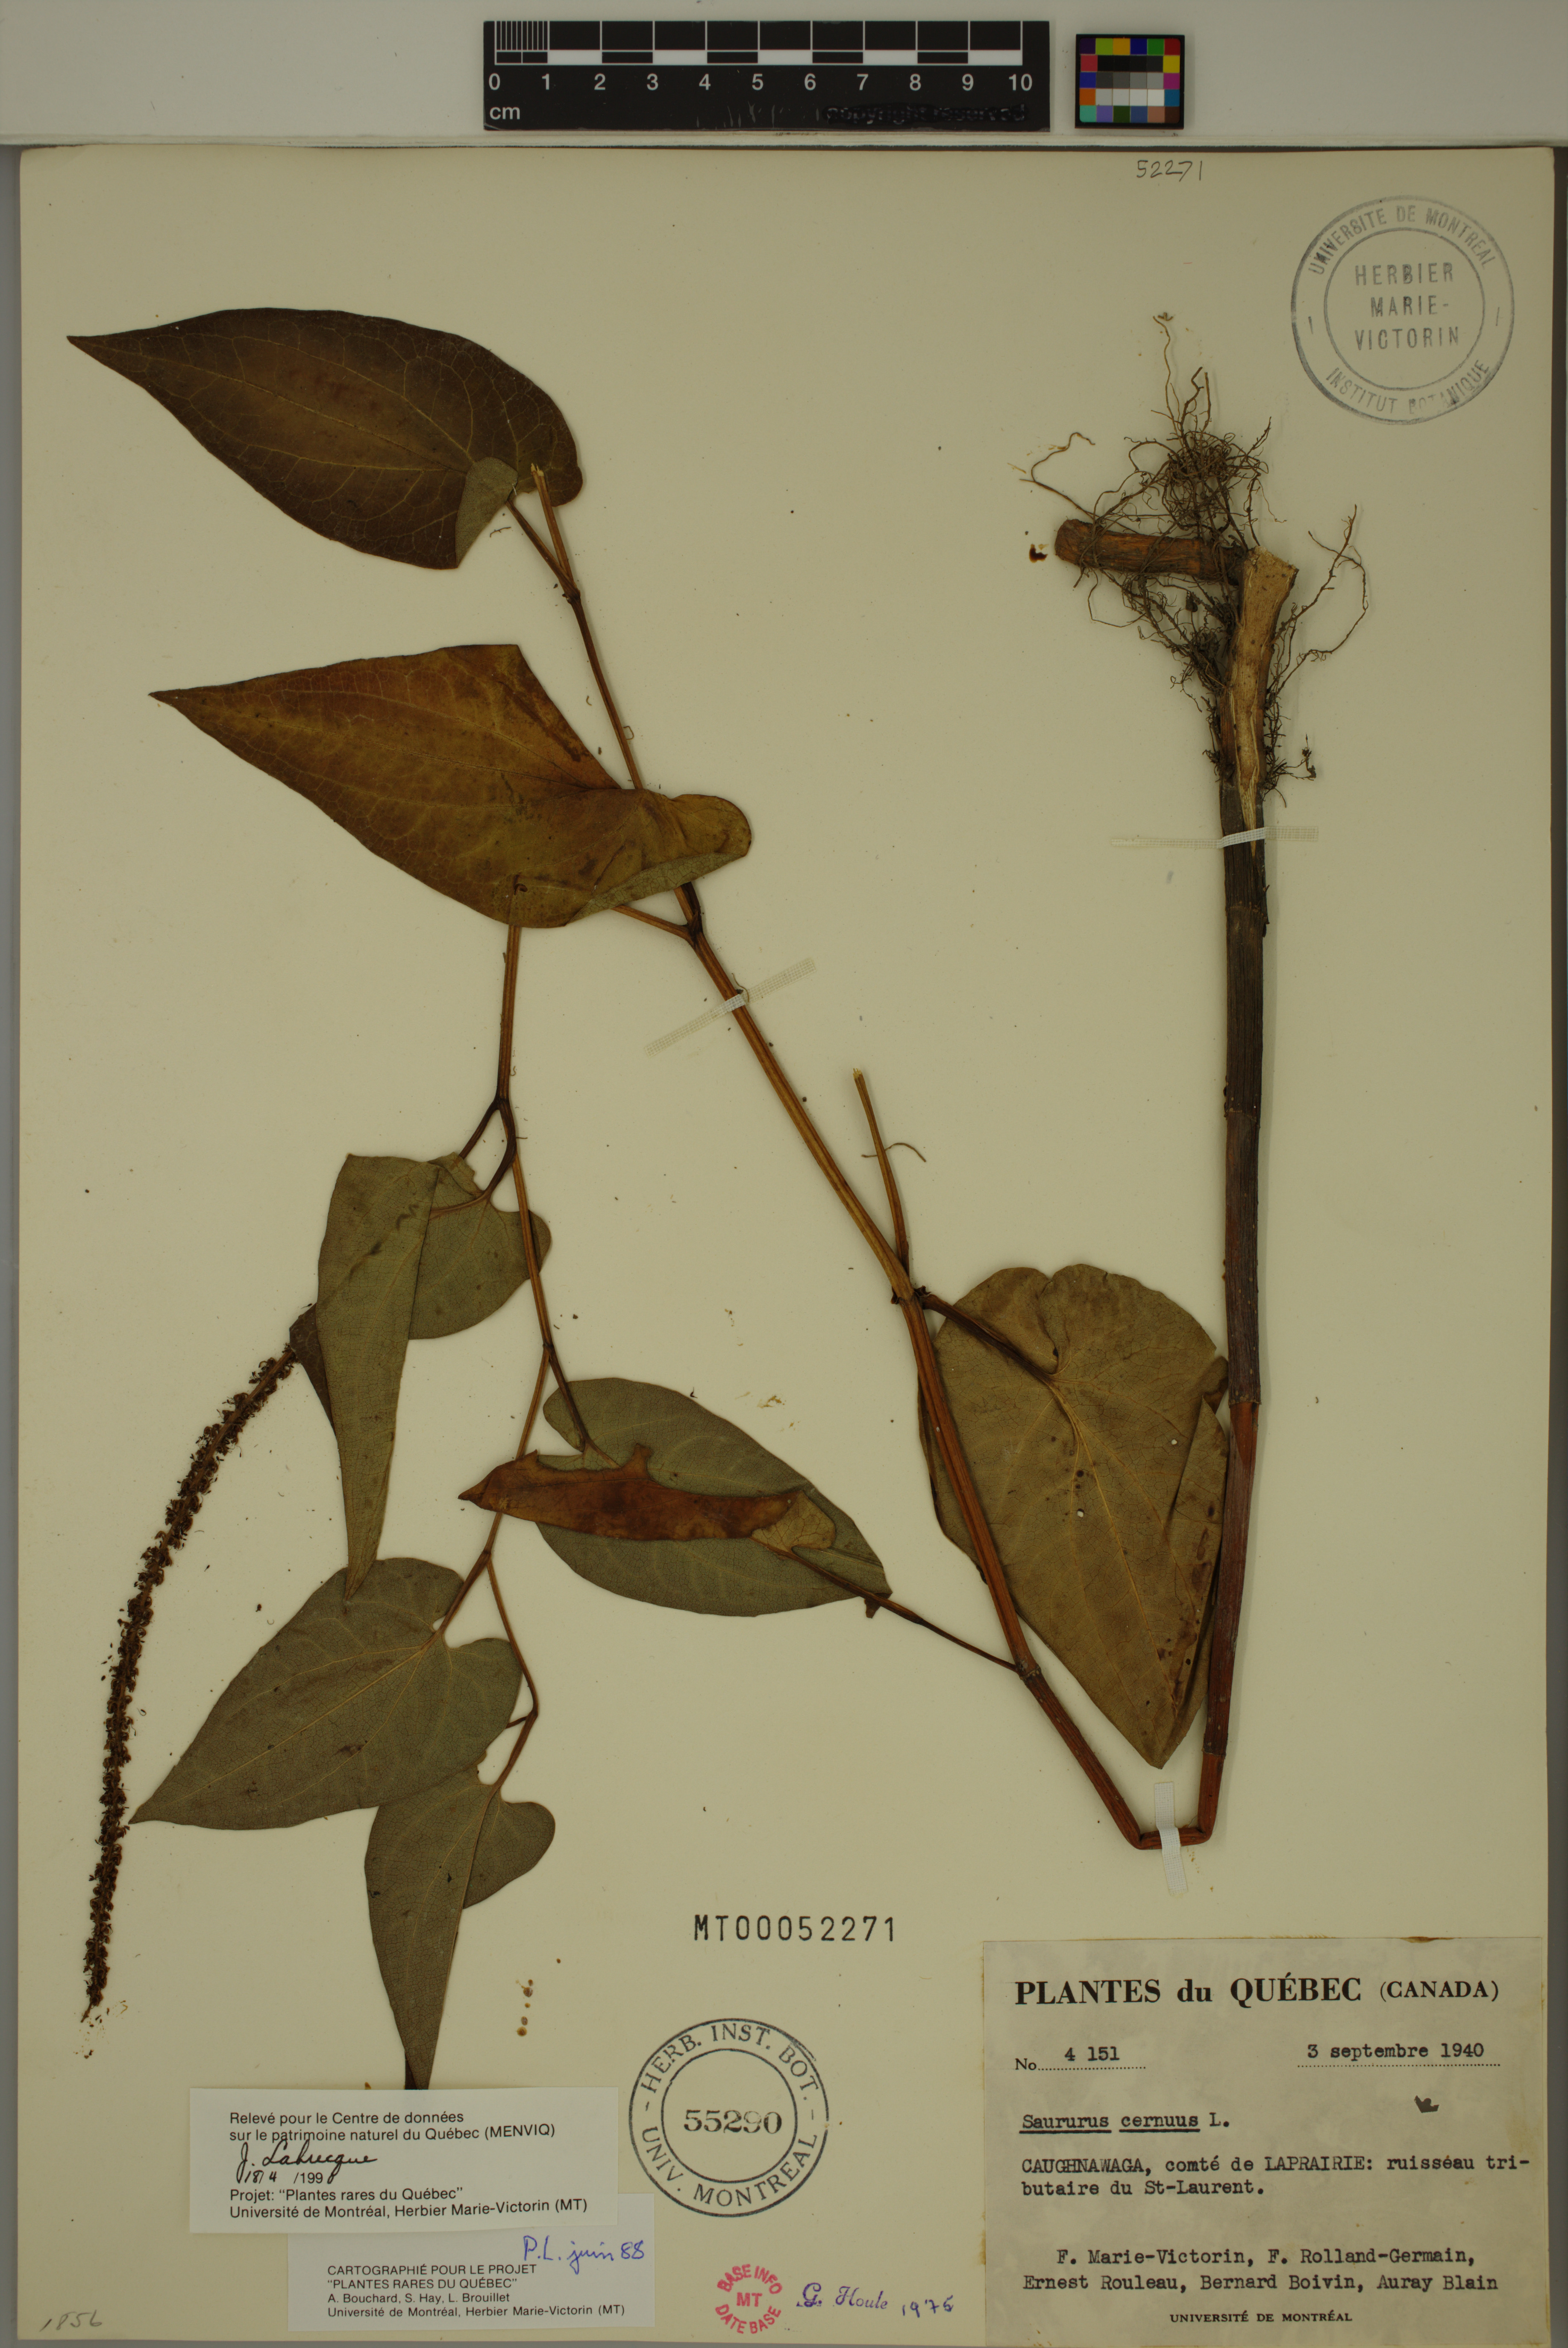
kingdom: Plantae
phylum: Tracheophyta
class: Magnoliopsida
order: Piperales
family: Saururaceae
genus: Saururus
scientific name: Saururus cernuus
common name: Lizard's-tail
